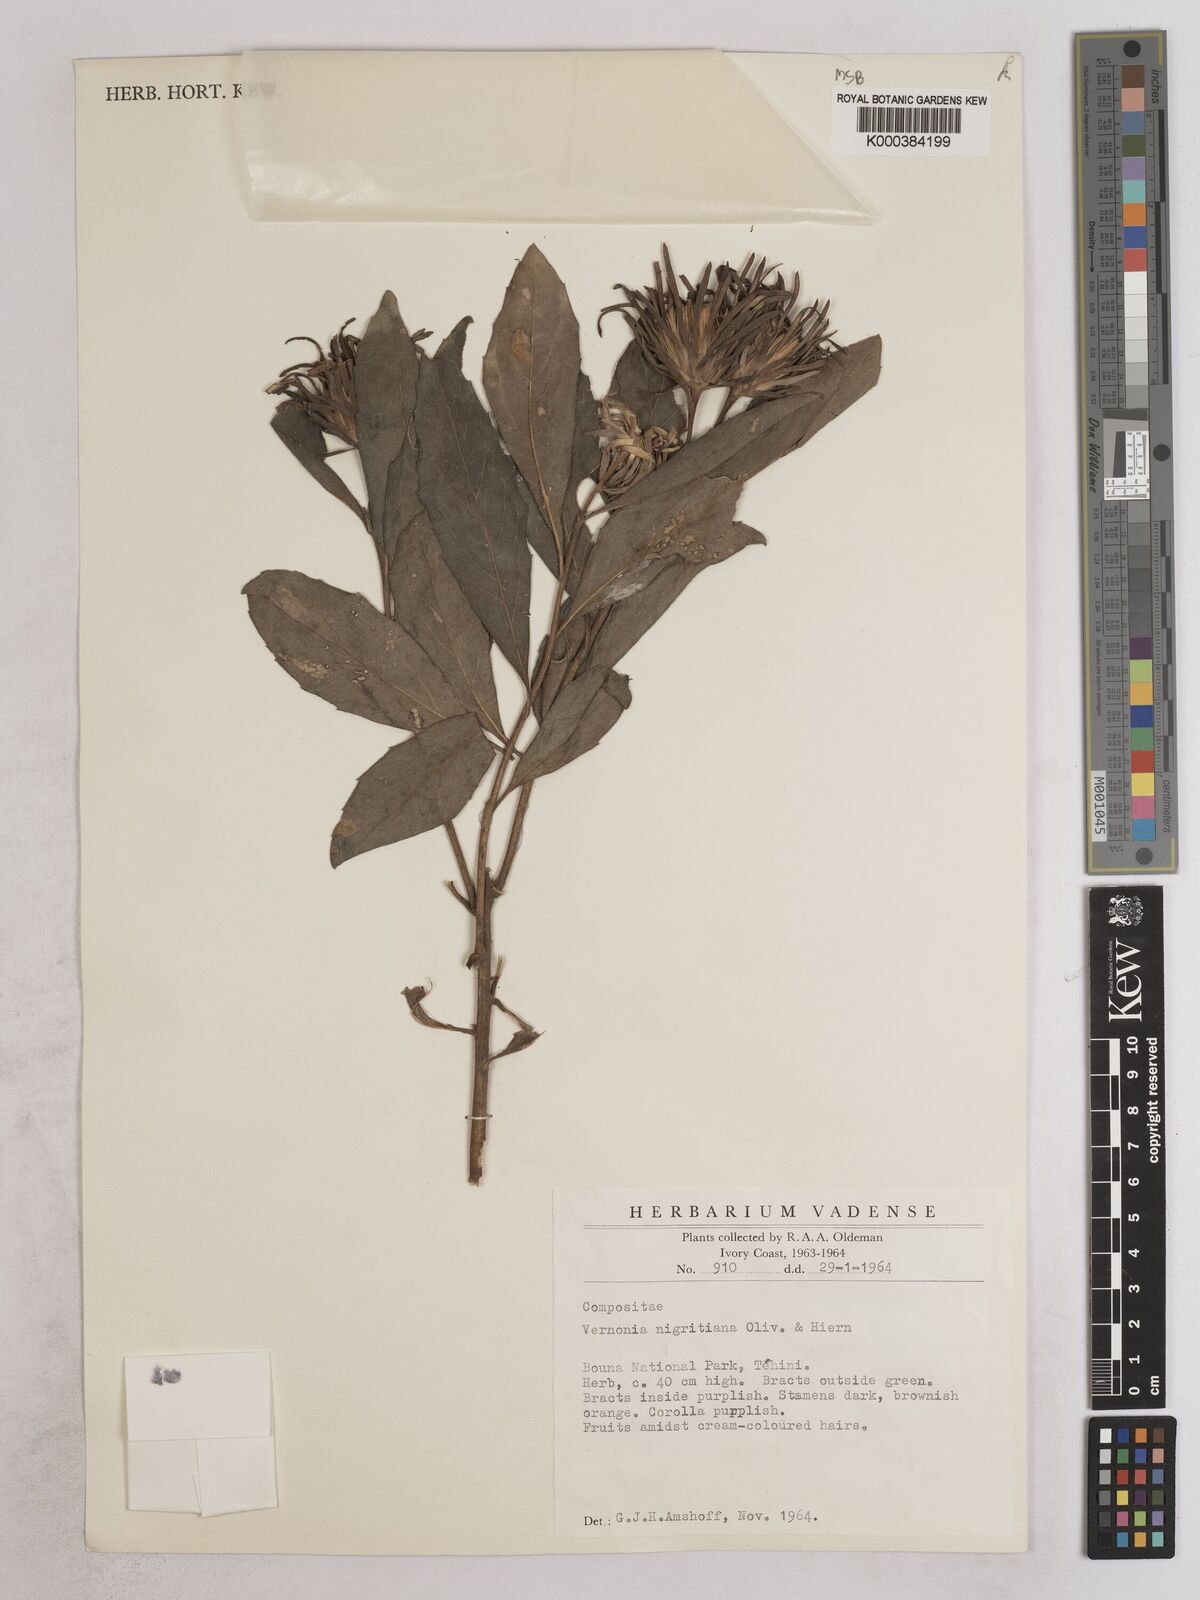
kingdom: Plantae
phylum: Tracheophyta
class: Magnoliopsida
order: Asterales
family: Asteraceae
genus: Linzia
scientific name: Linzia nigritiana
